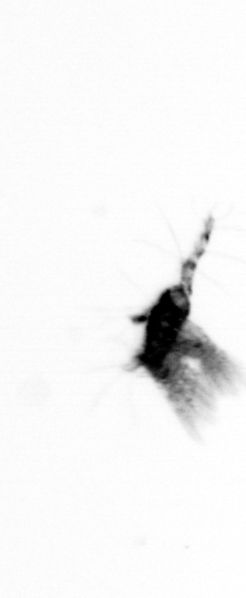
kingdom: Animalia
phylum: Arthropoda
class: Copepoda
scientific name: Copepoda
